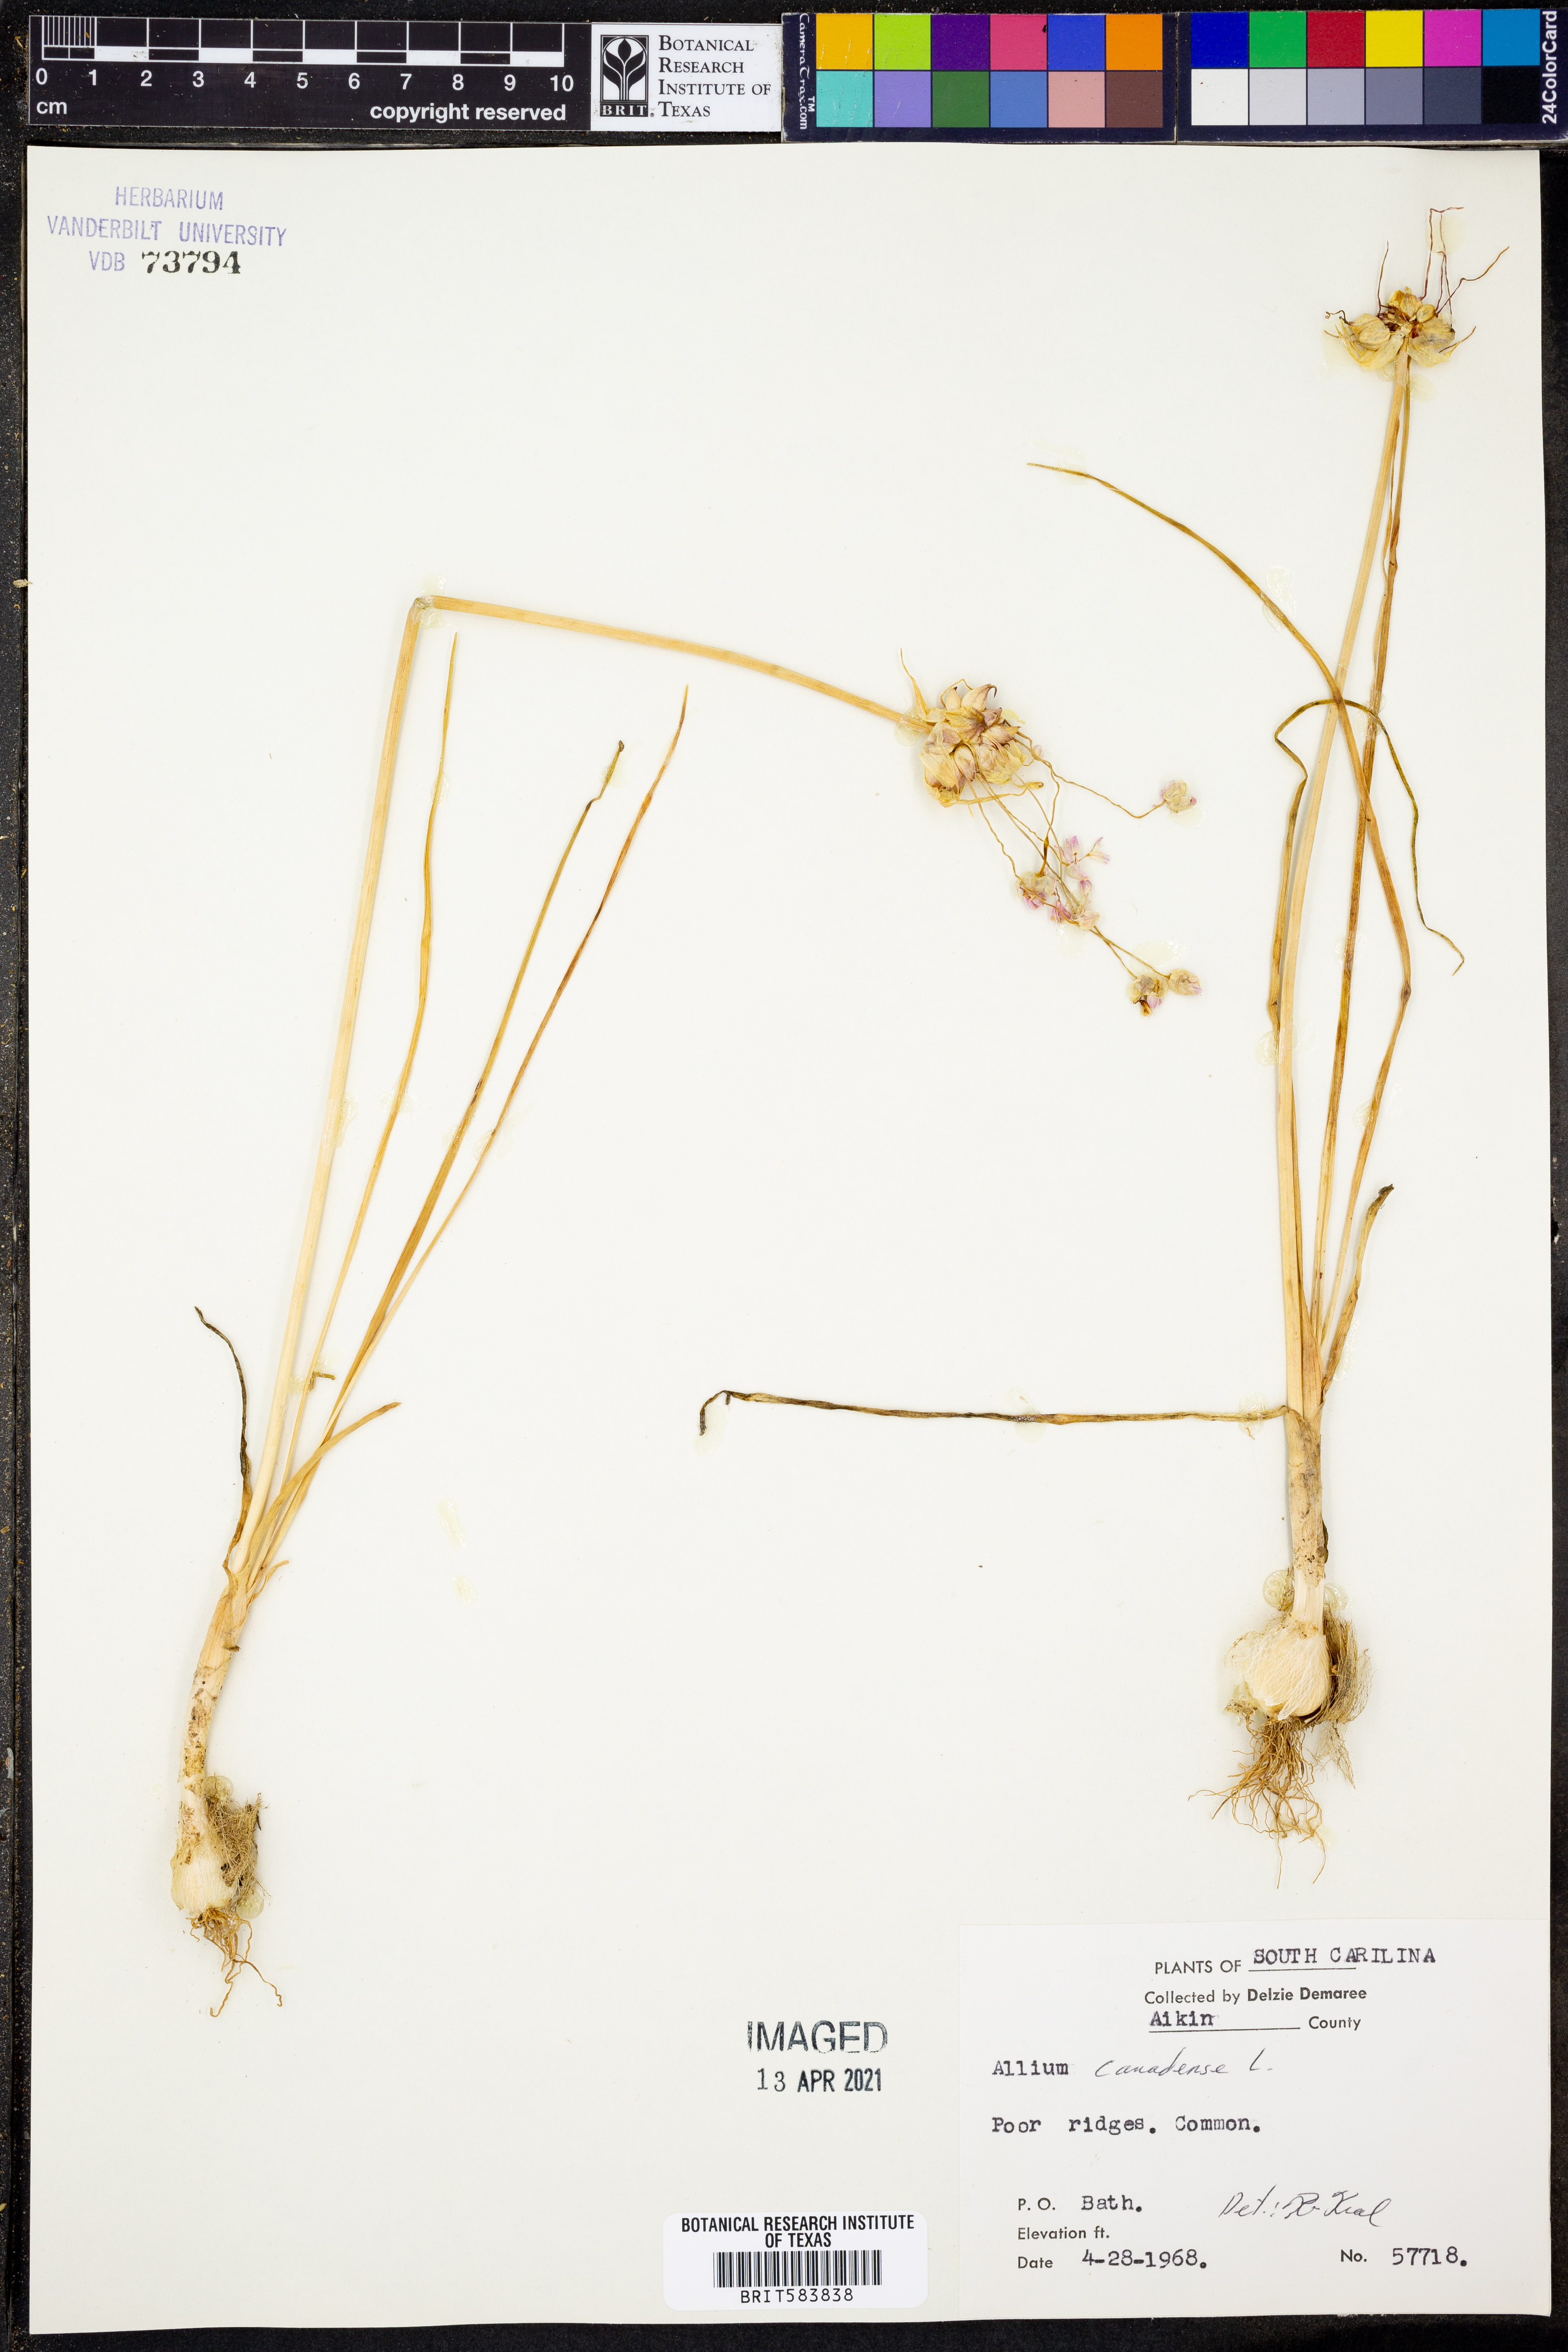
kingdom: Plantae
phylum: Tracheophyta
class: Liliopsida
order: Asparagales
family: Amaryllidaceae
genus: Allium
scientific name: Allium canadense
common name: Meadow garlic
